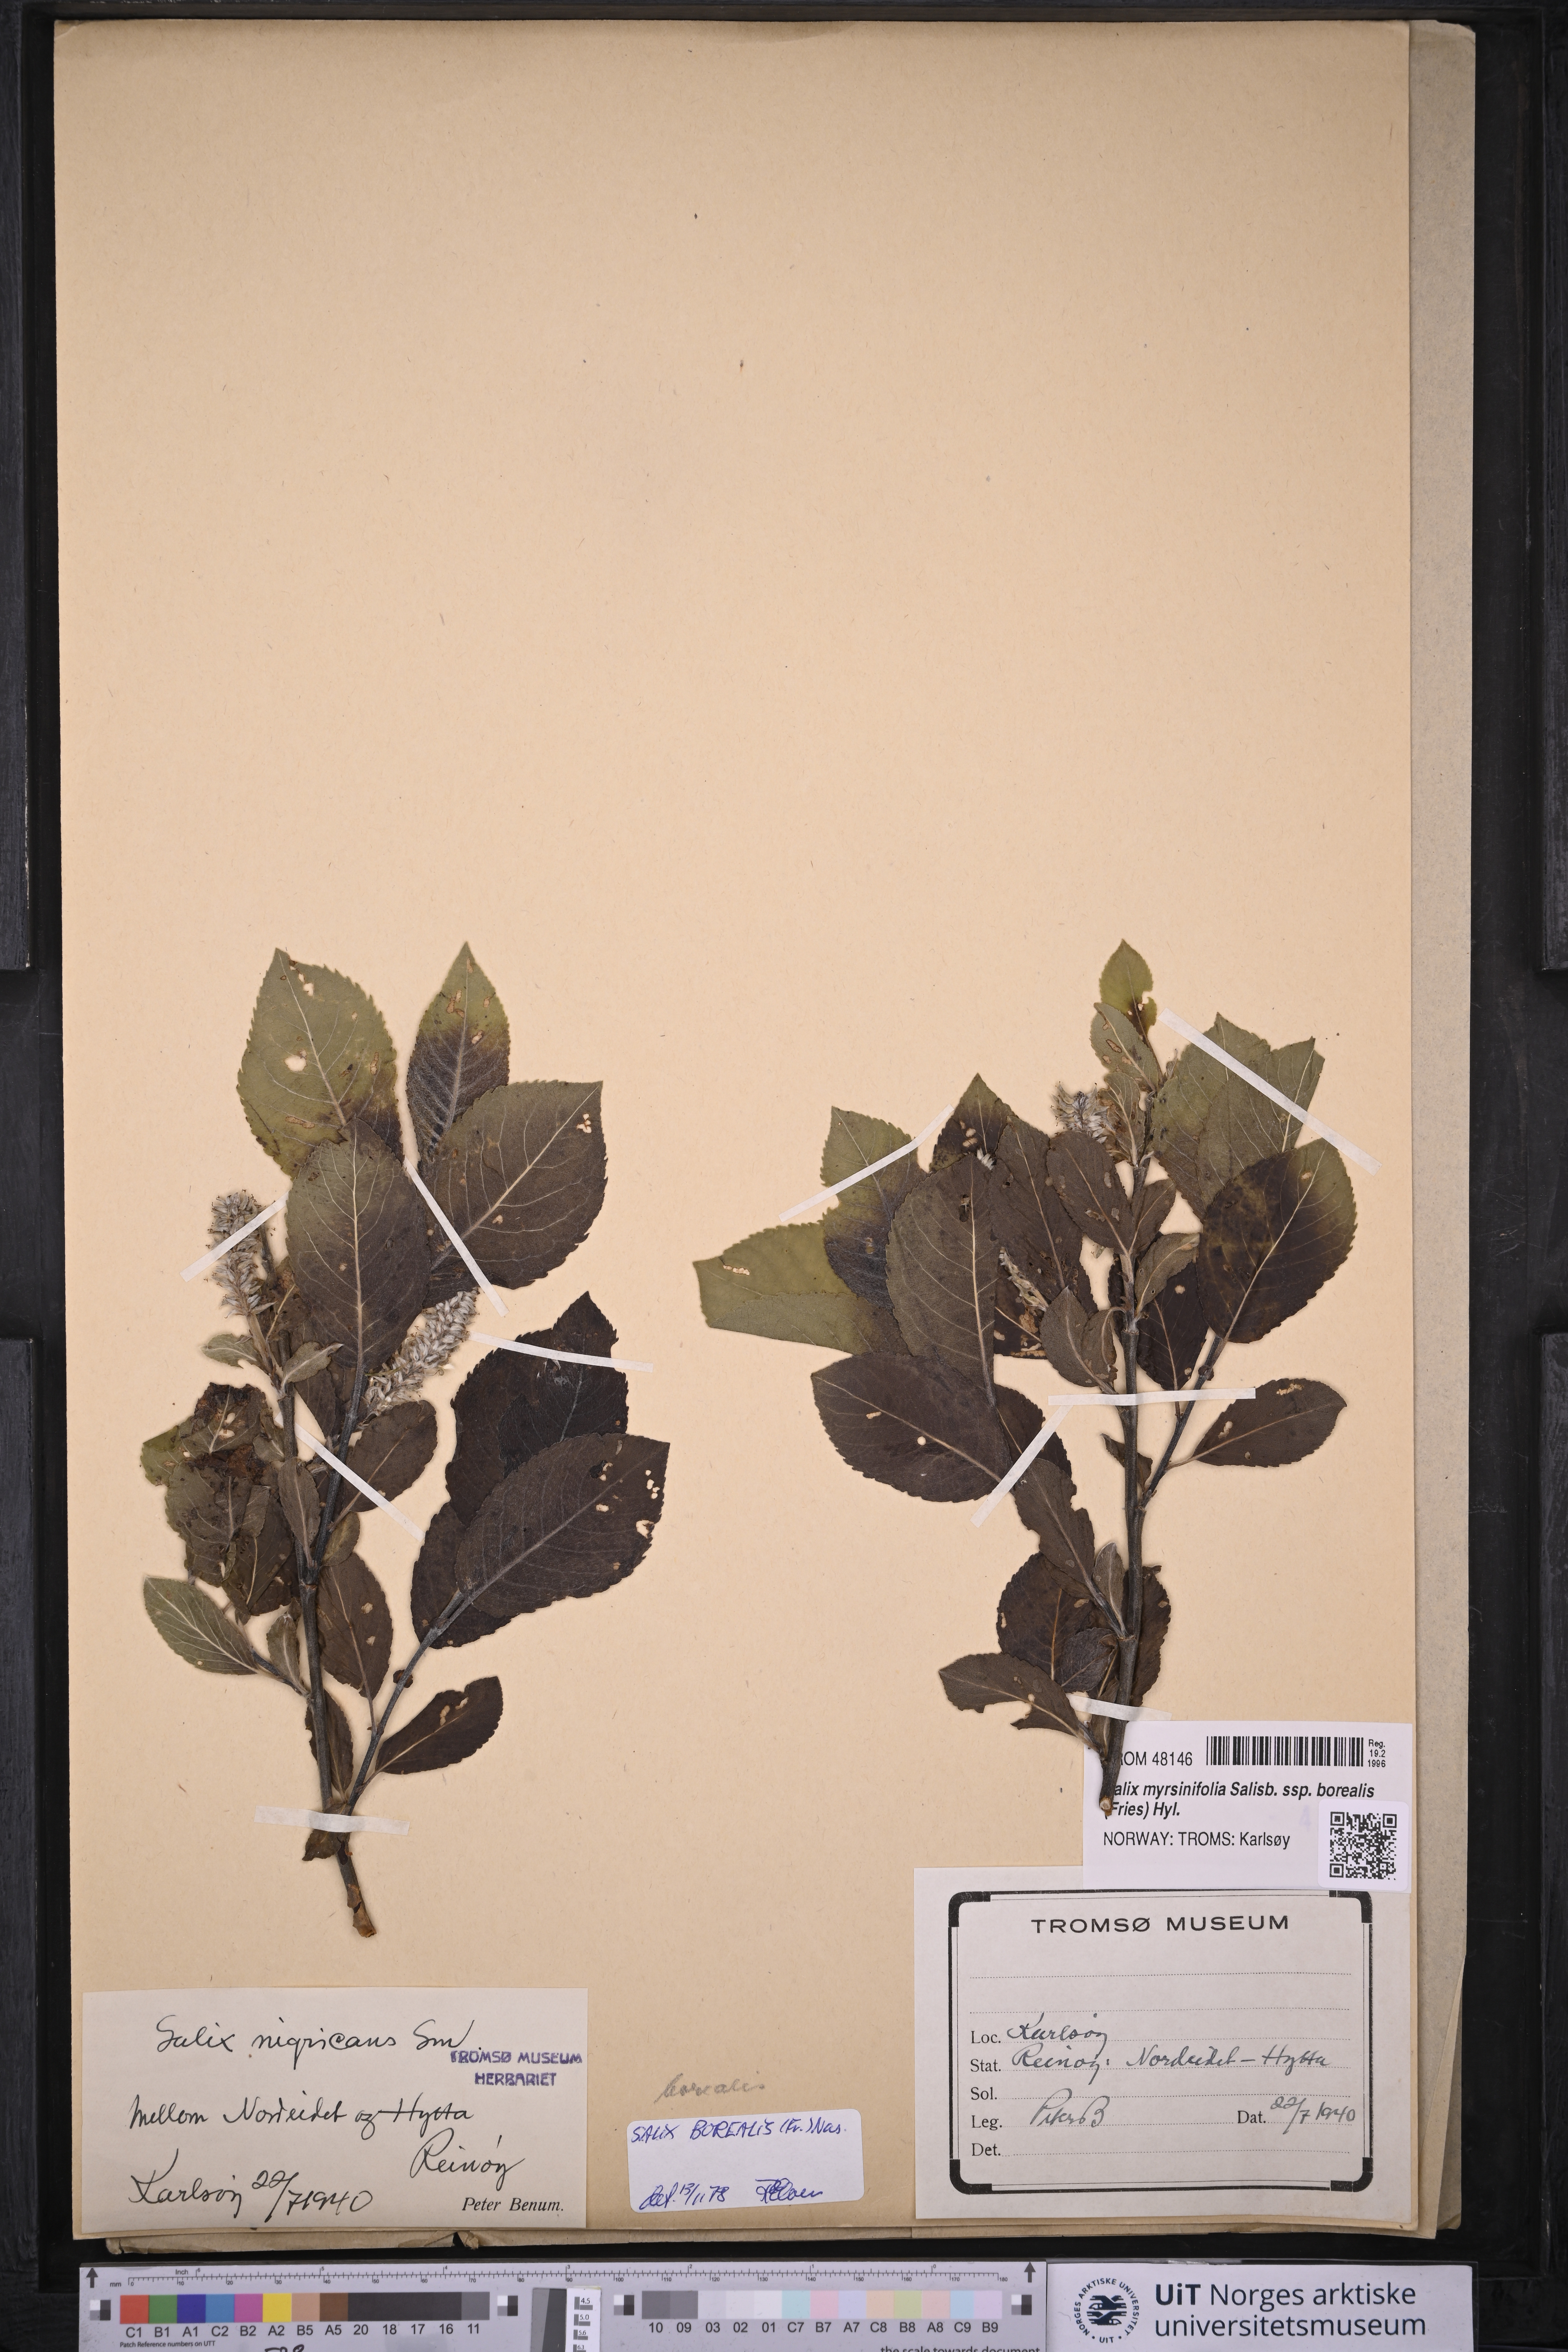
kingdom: Plantae
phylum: Tracheophyta
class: Magnoliopsida
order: Malpighiales
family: Salicaceae
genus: Salix
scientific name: Salix myrsinifolia
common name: Dark-leaved willow
